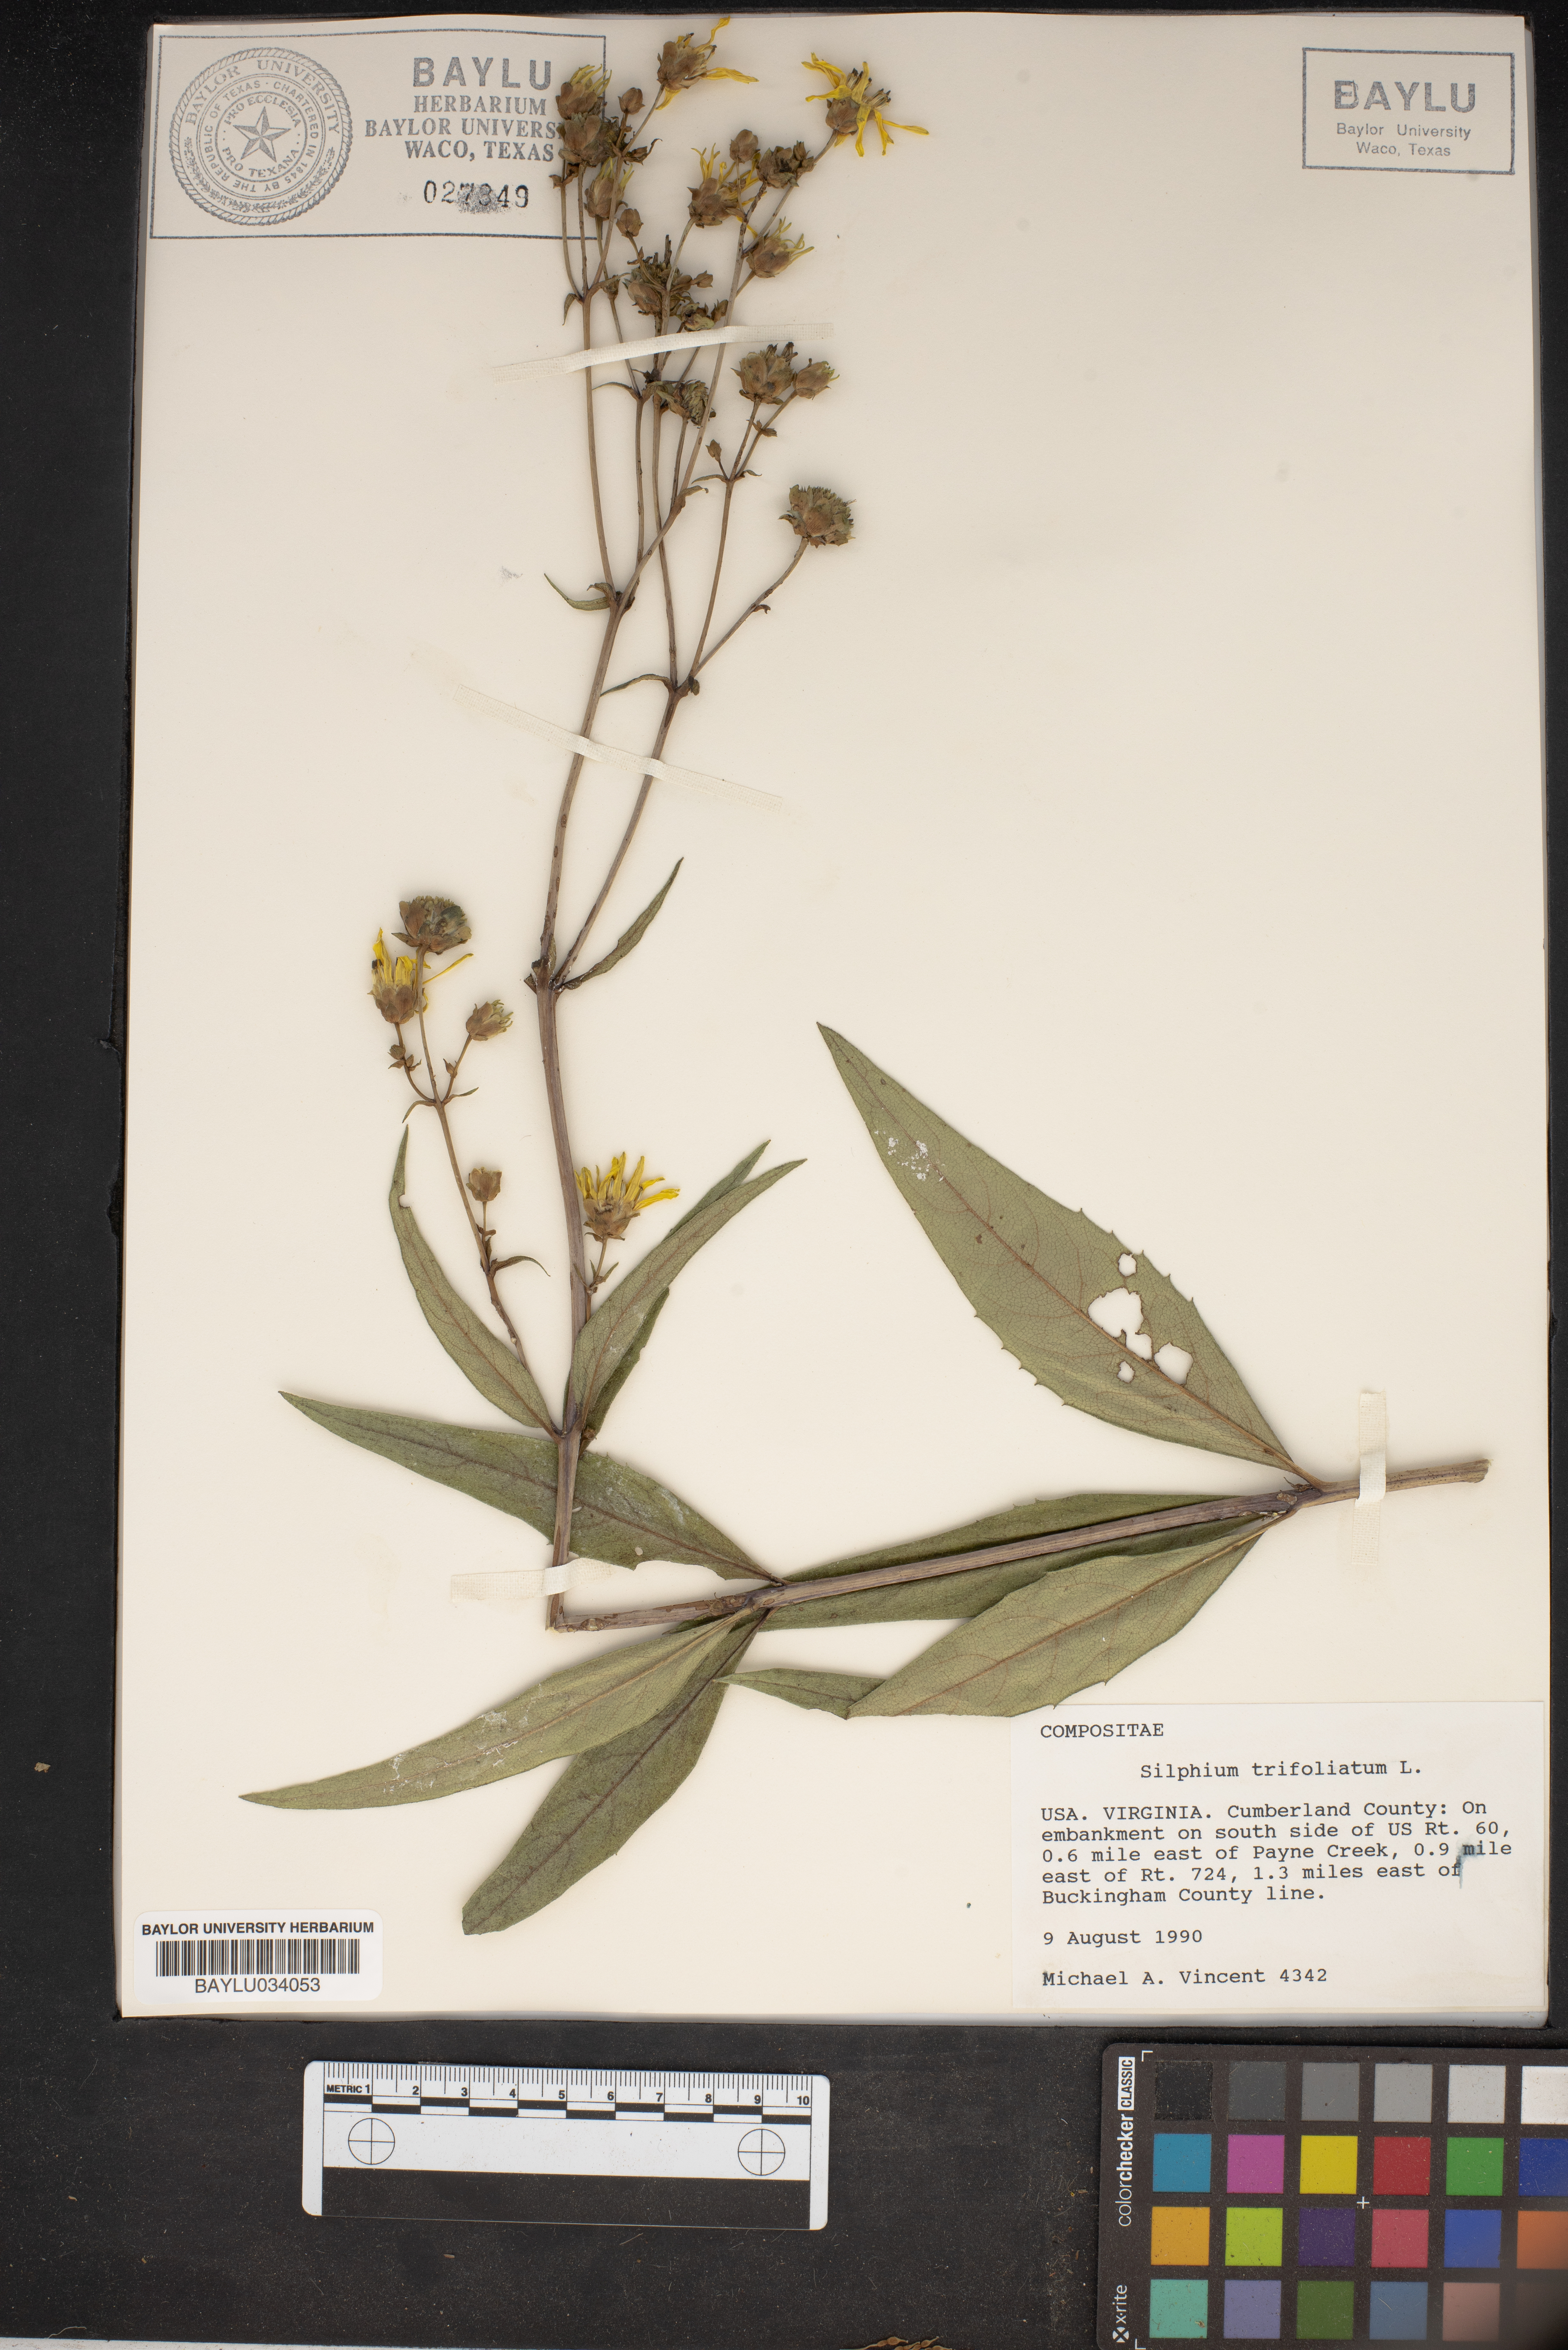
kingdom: Plantae
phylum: Tracheophyta
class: Magnoliopsida
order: Asterales
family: Asteraceae
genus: Silphium
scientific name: Silphium asteriscus
